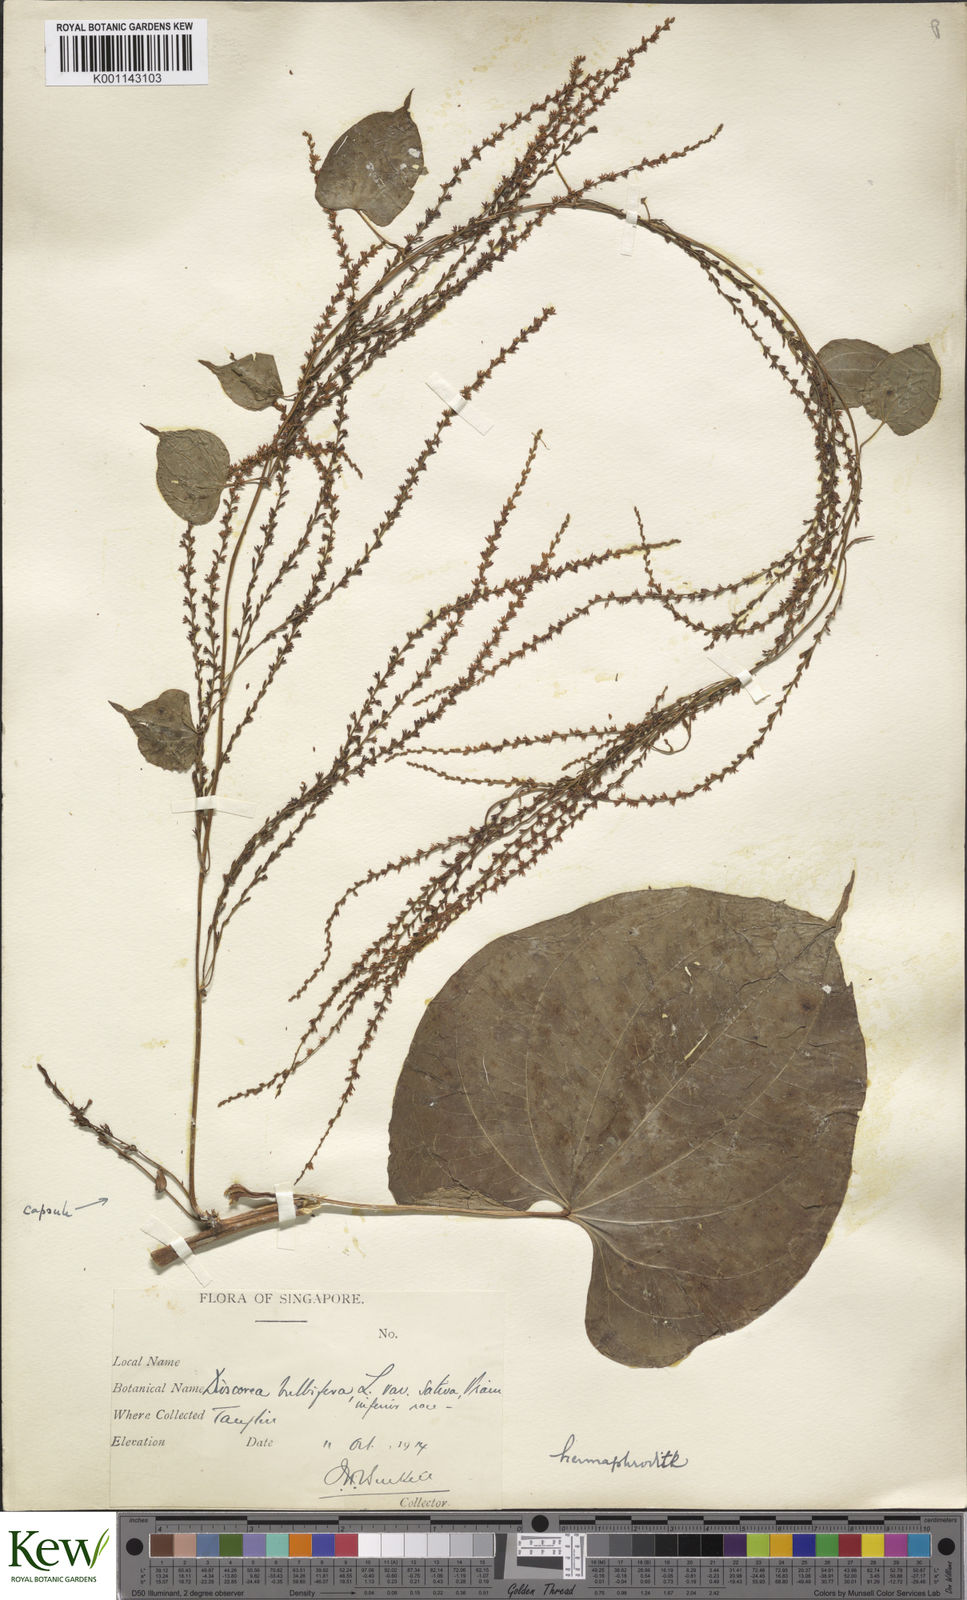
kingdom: Plantae
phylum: Tracheophyta
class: Liliopsida
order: Dioscoreales
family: Dioscoreaceae
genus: Dioscorea
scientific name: Dioscorea bulbifera
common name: Air yam
